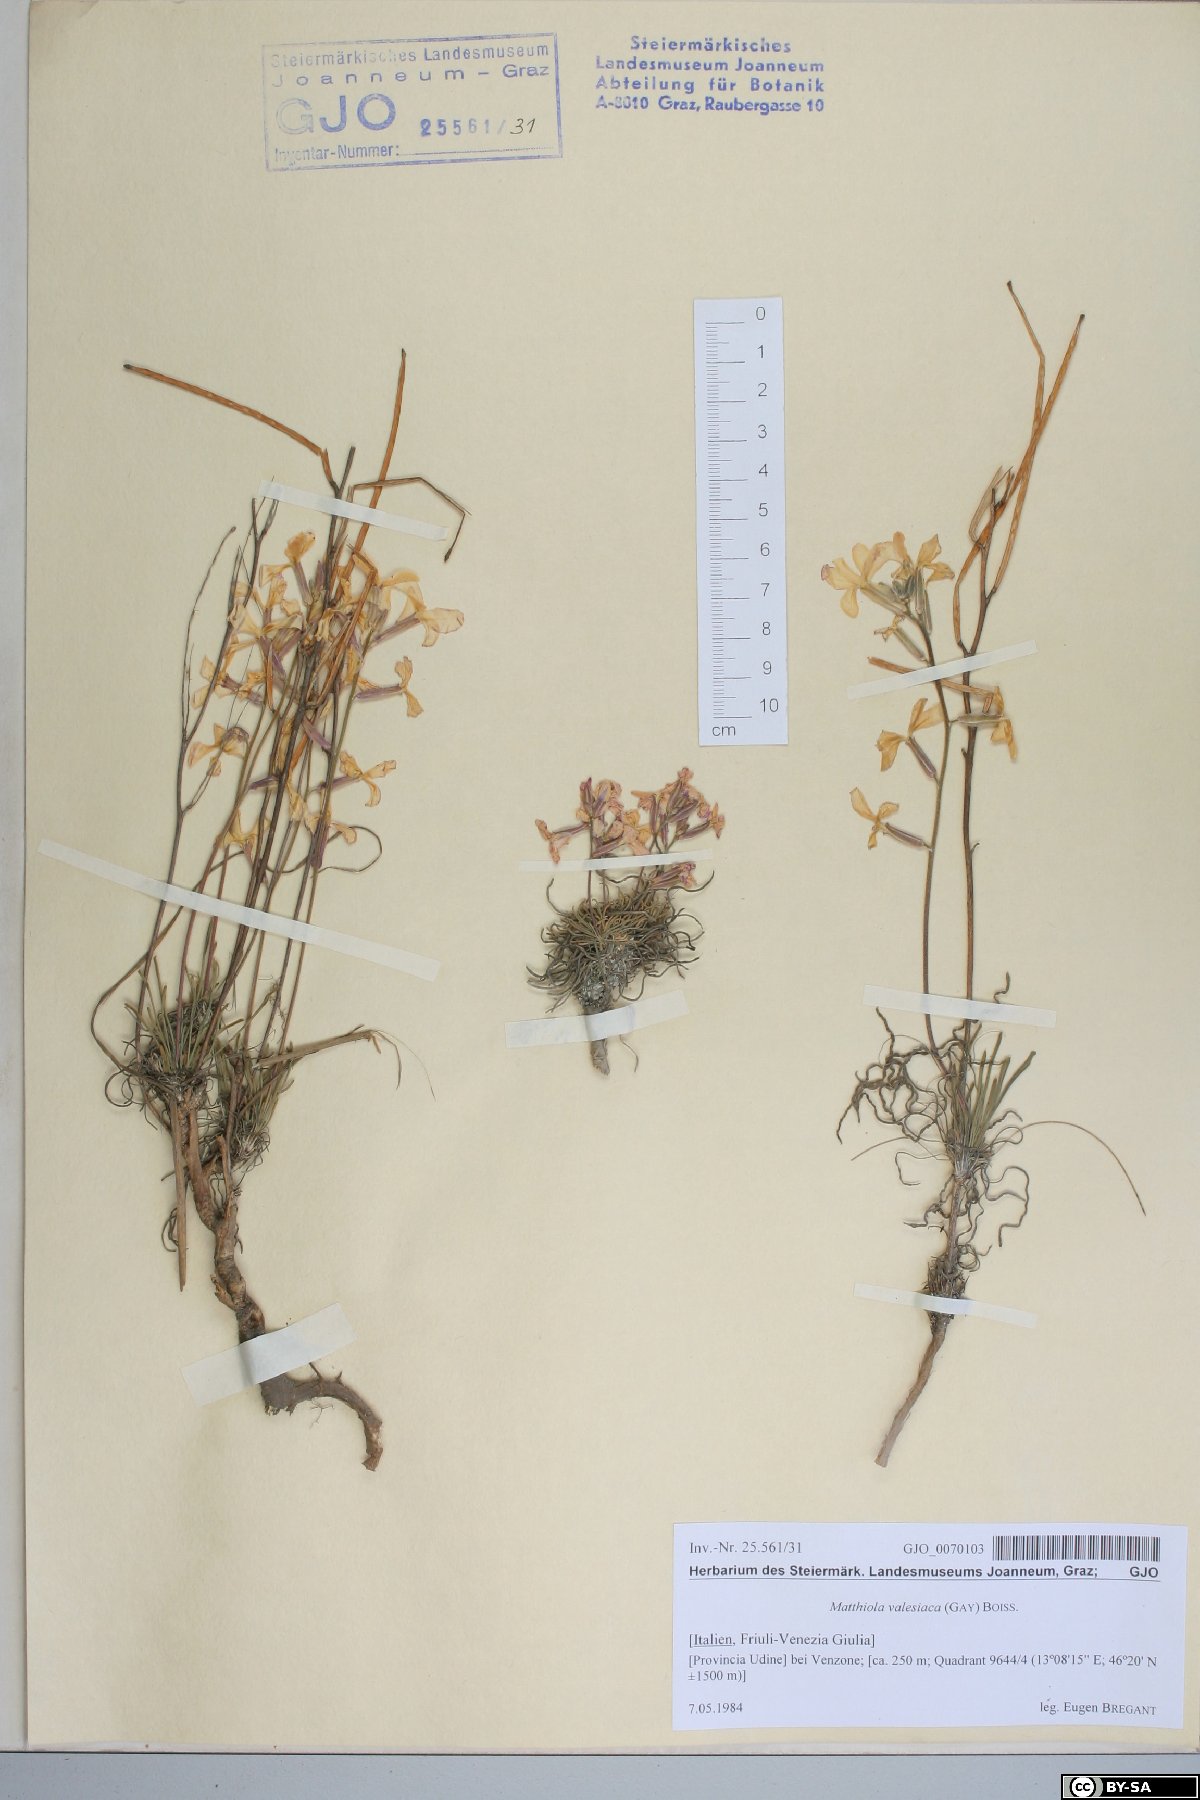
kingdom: Plantae
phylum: Tracheophyta
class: Magnoliopsida
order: Brassicales
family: Brassicaceae
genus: Matthiola
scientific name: Matthiola fruticulosa
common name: Sad stock
